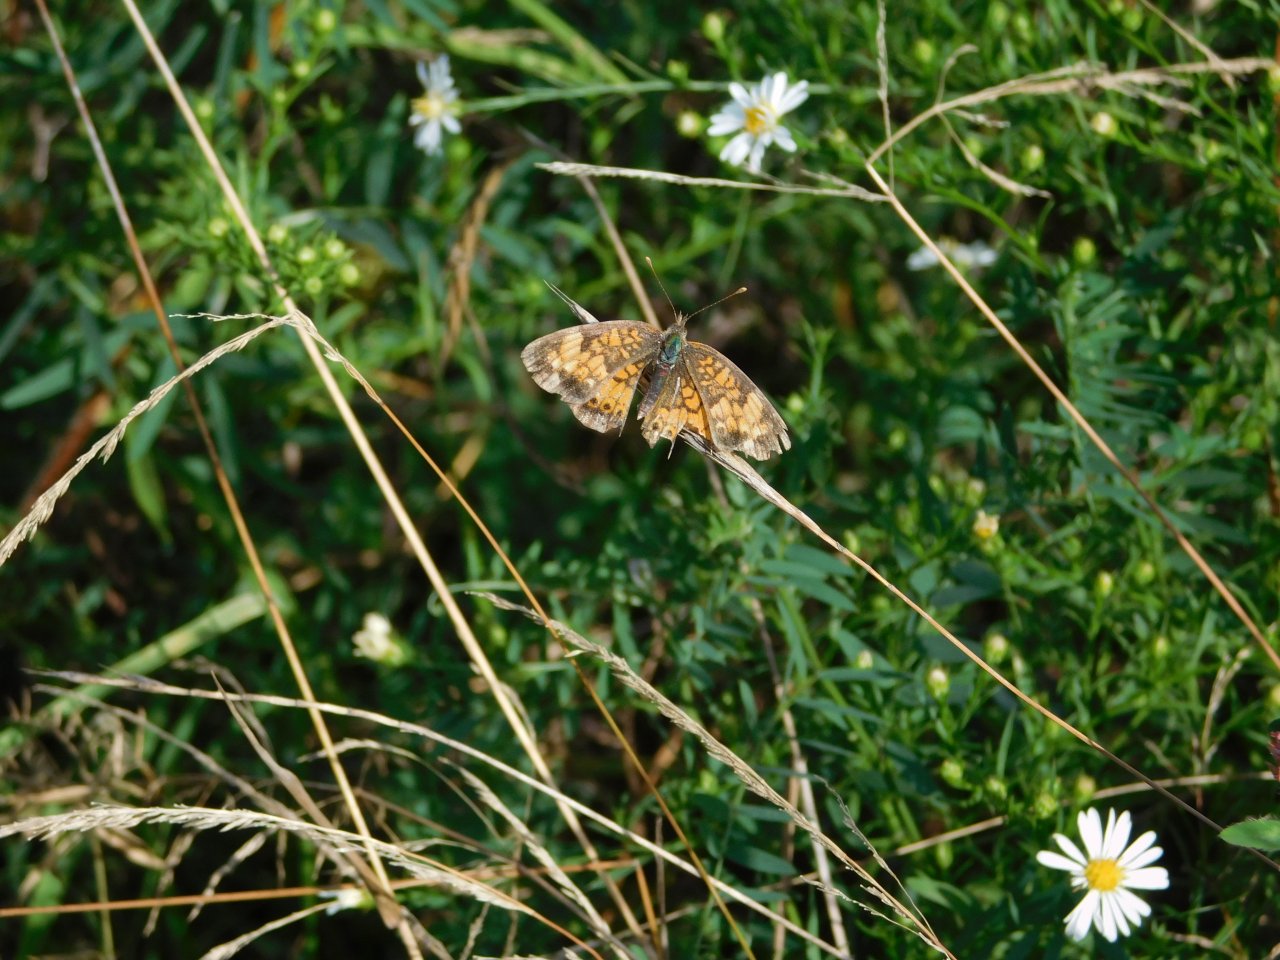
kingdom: Animalia
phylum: Arthropoda
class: Insecta
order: Lepidoptera
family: Nymphalidae
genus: Phyciodes
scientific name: Phyciodes tharos
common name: Northern Crescent
